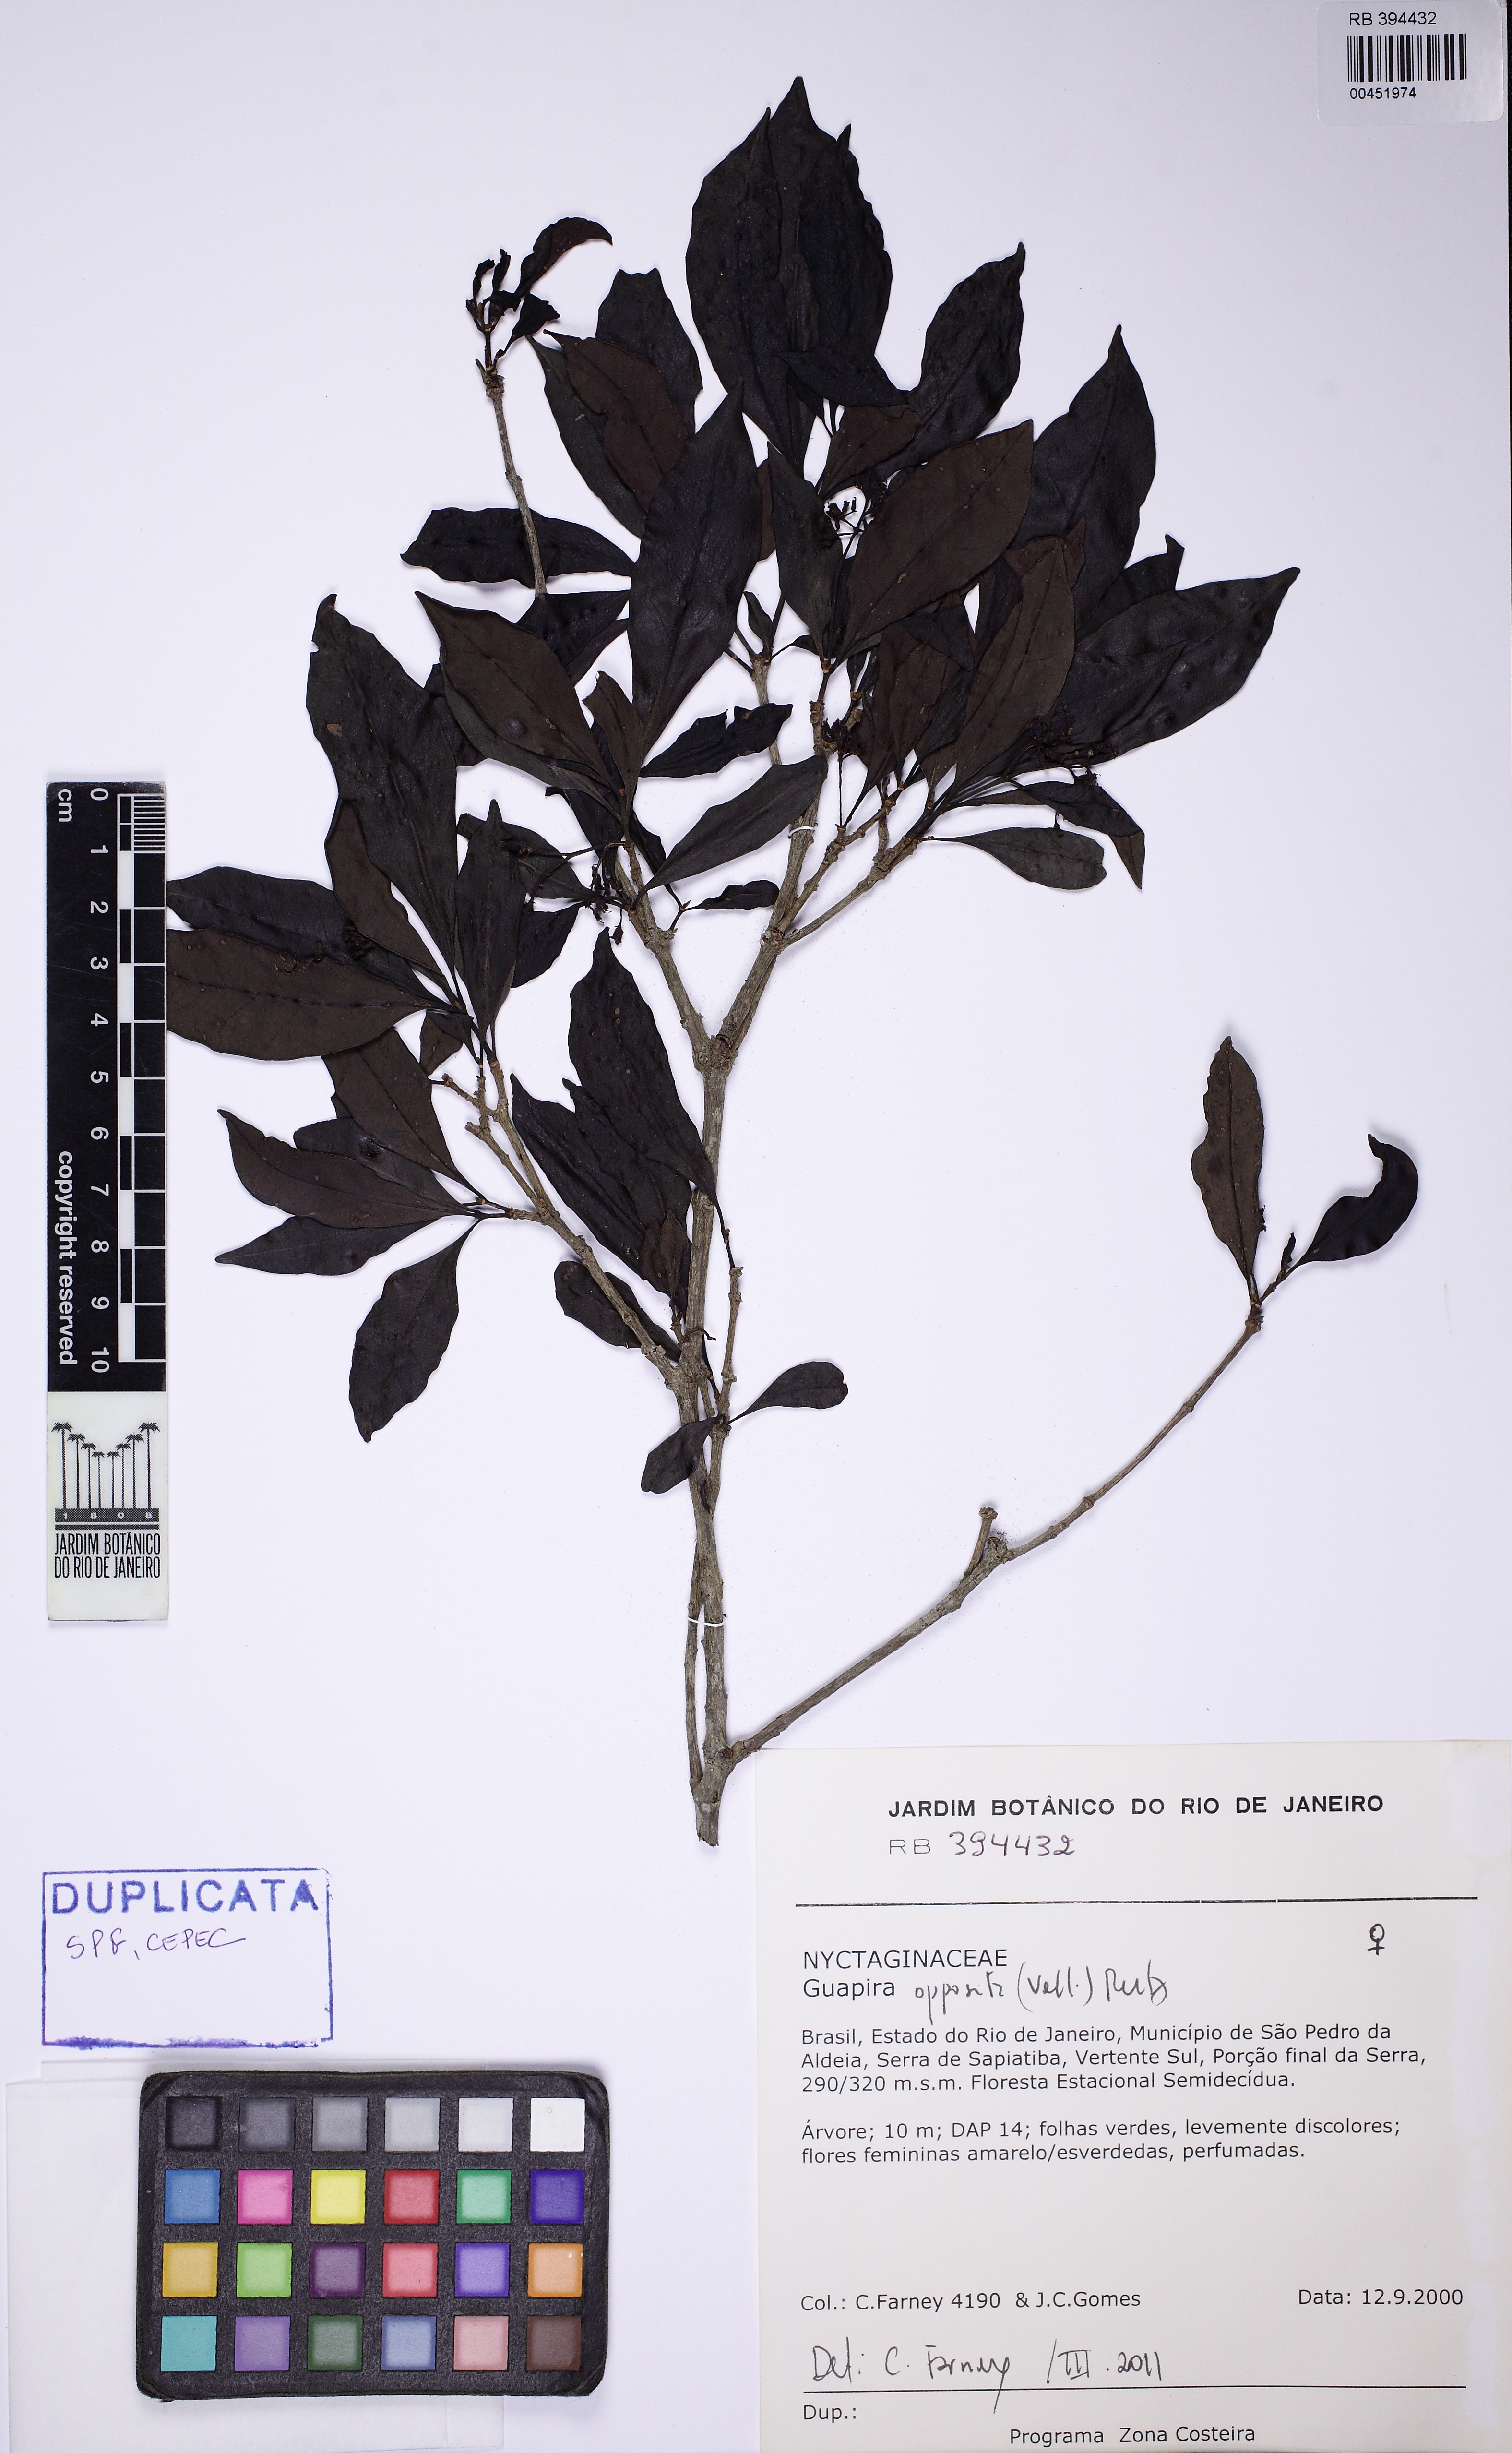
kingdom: Plantae
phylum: Tracheophyta
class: Magnoliopsida
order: Caryophyllales
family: Nyctaginaceae
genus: Guapira
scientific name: Guapira opposita
